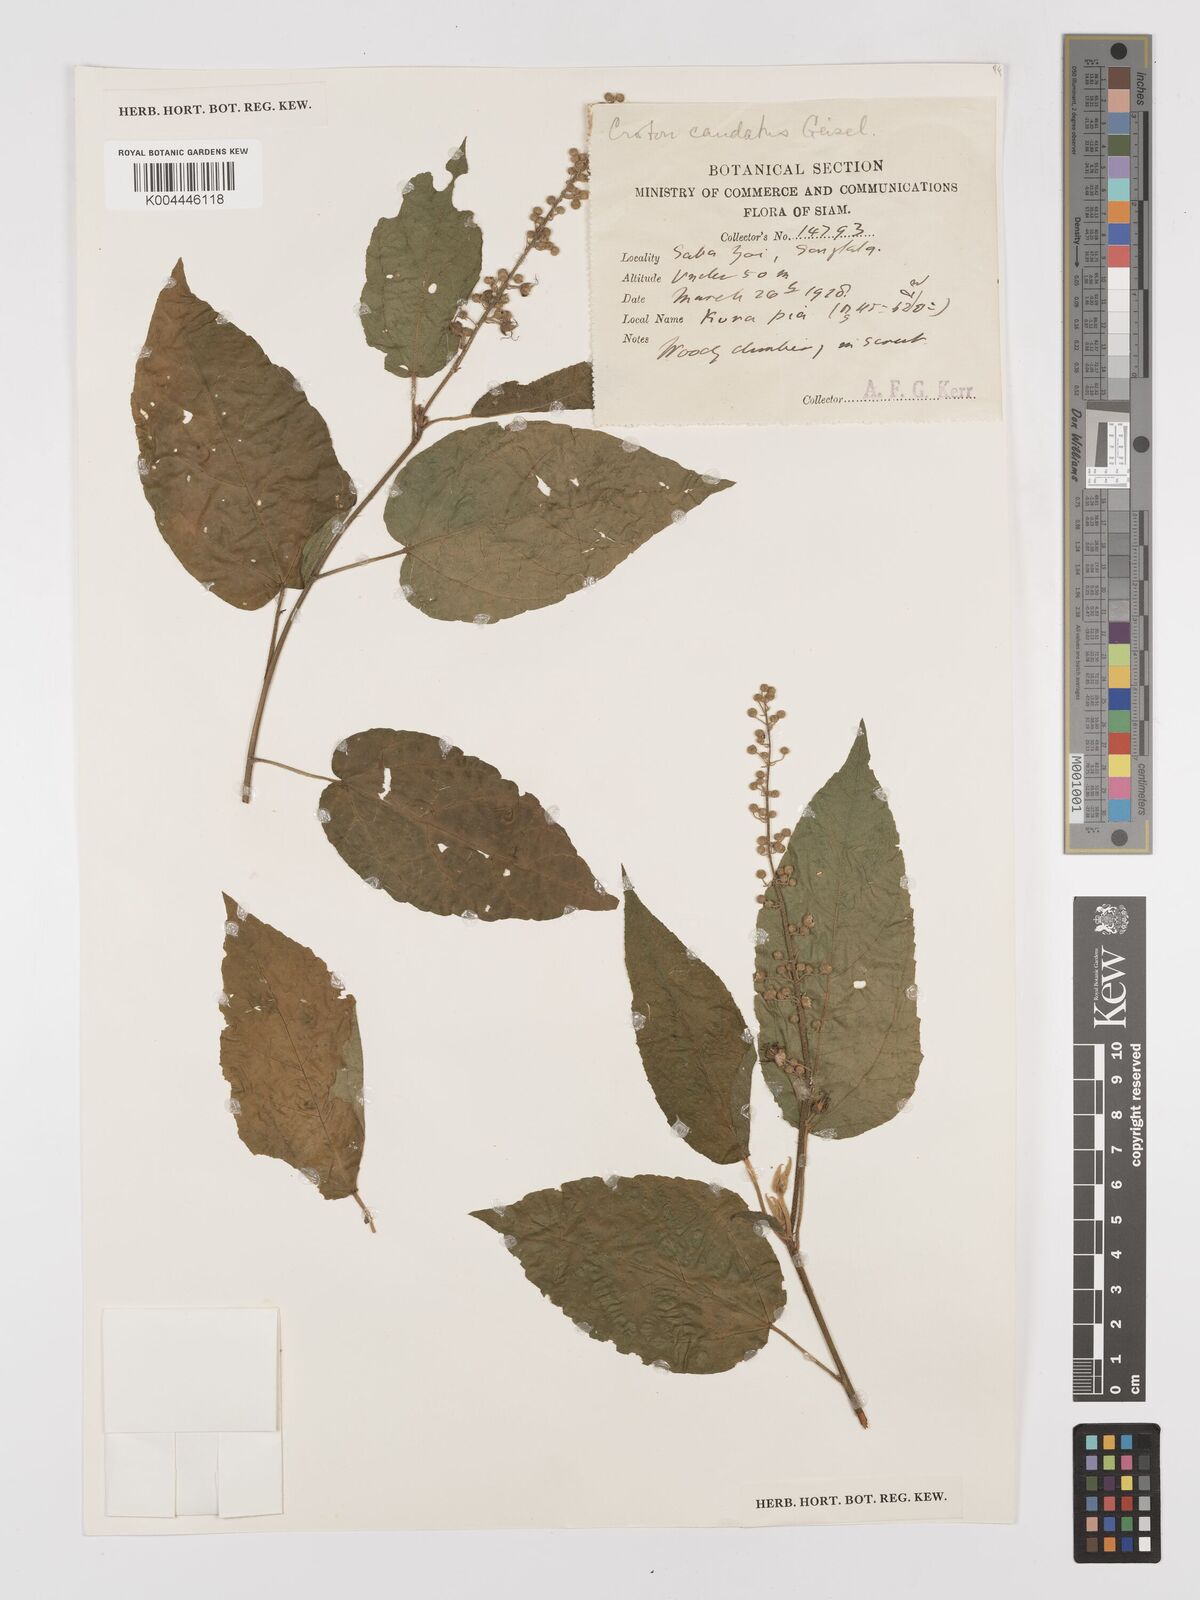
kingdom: Plantae
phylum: Tracheophyta
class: Magnoliopsida
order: Malpighiales
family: Euphorbiaceae
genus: Croton
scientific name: Croton caudatus
